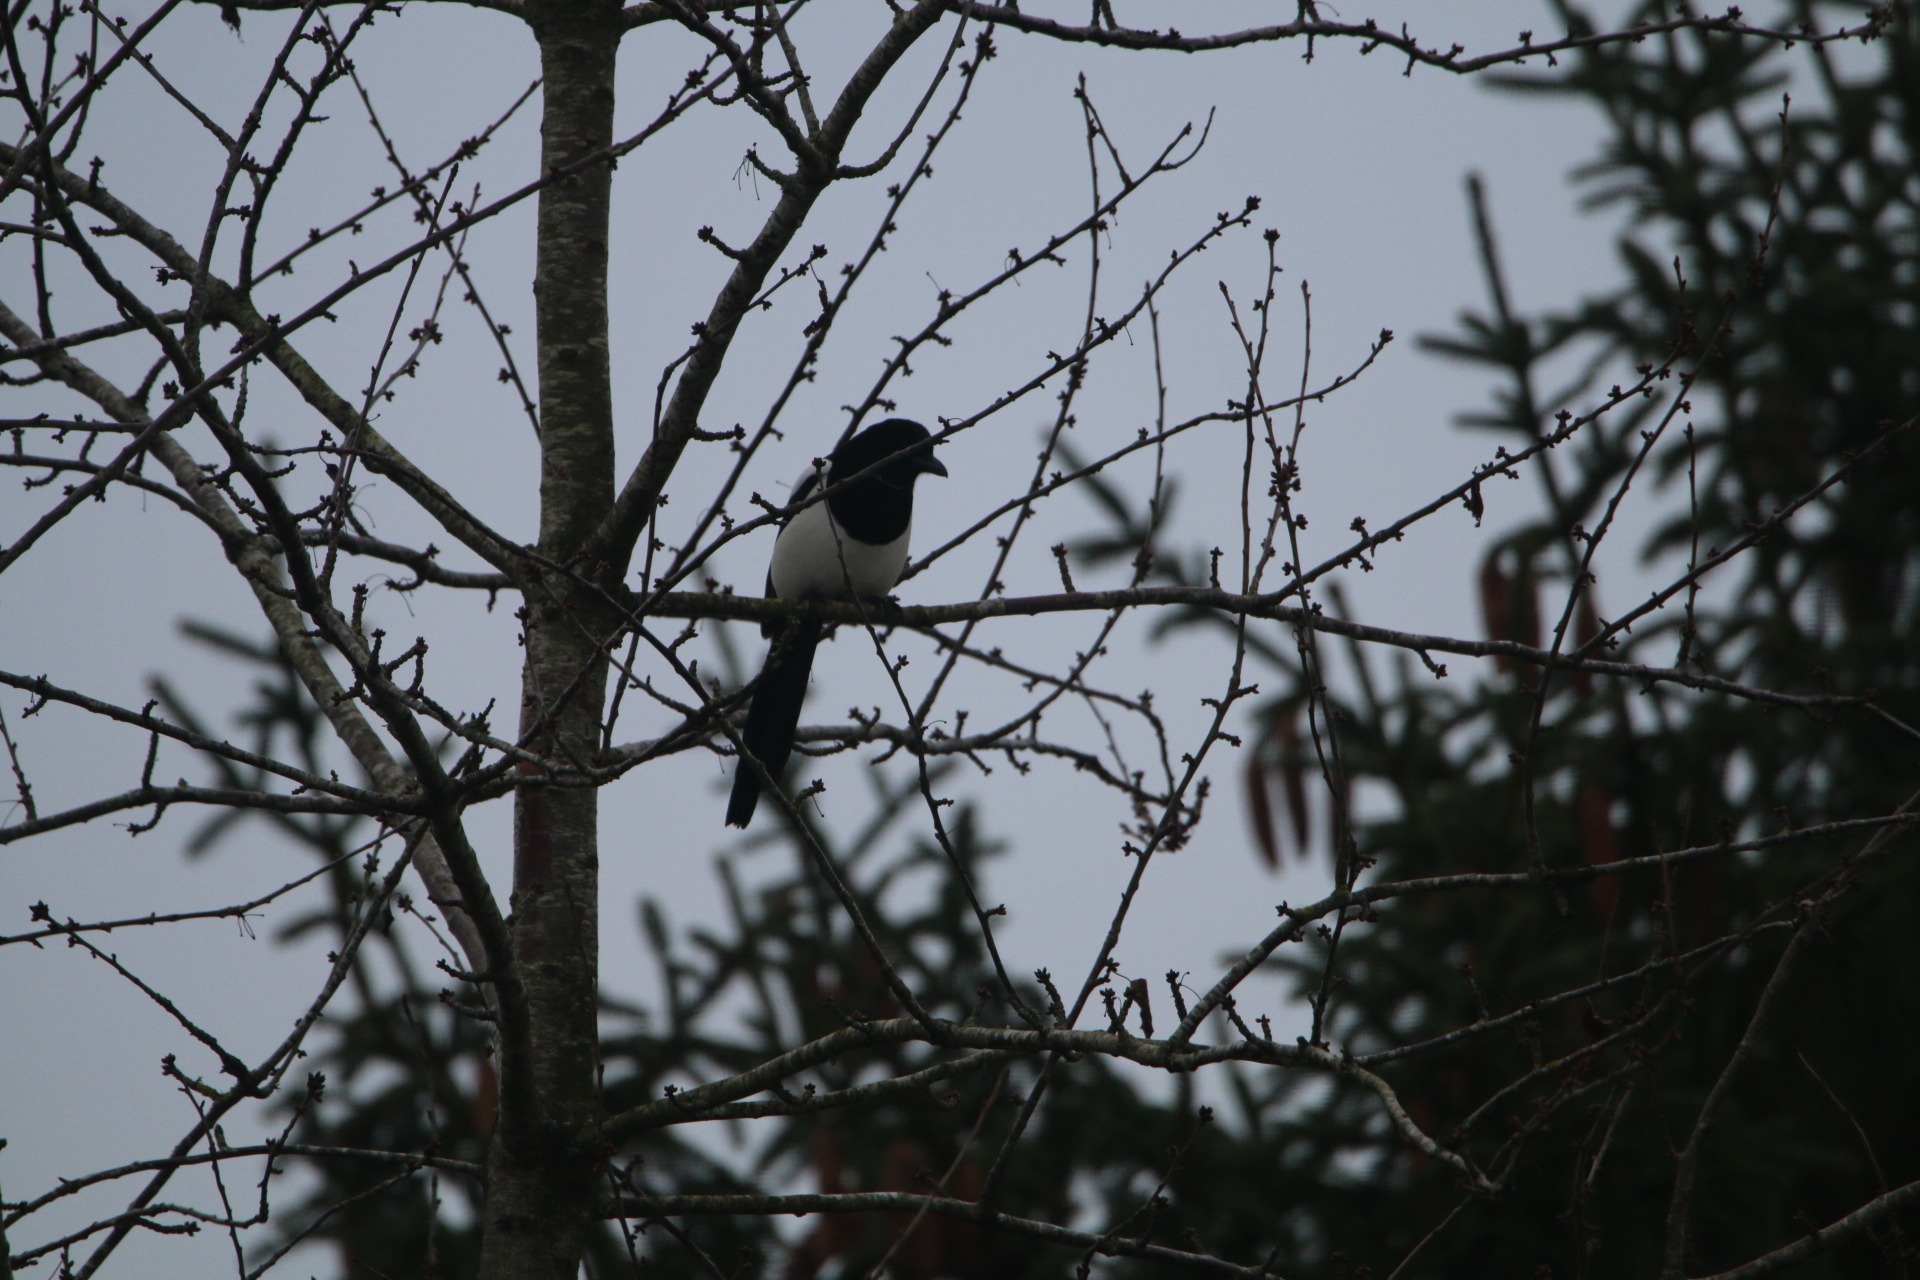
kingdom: Animalia
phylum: Chordata
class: Aves
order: Passeriformes
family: Corvidae
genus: Pica
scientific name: Pica pica
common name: Husskade
